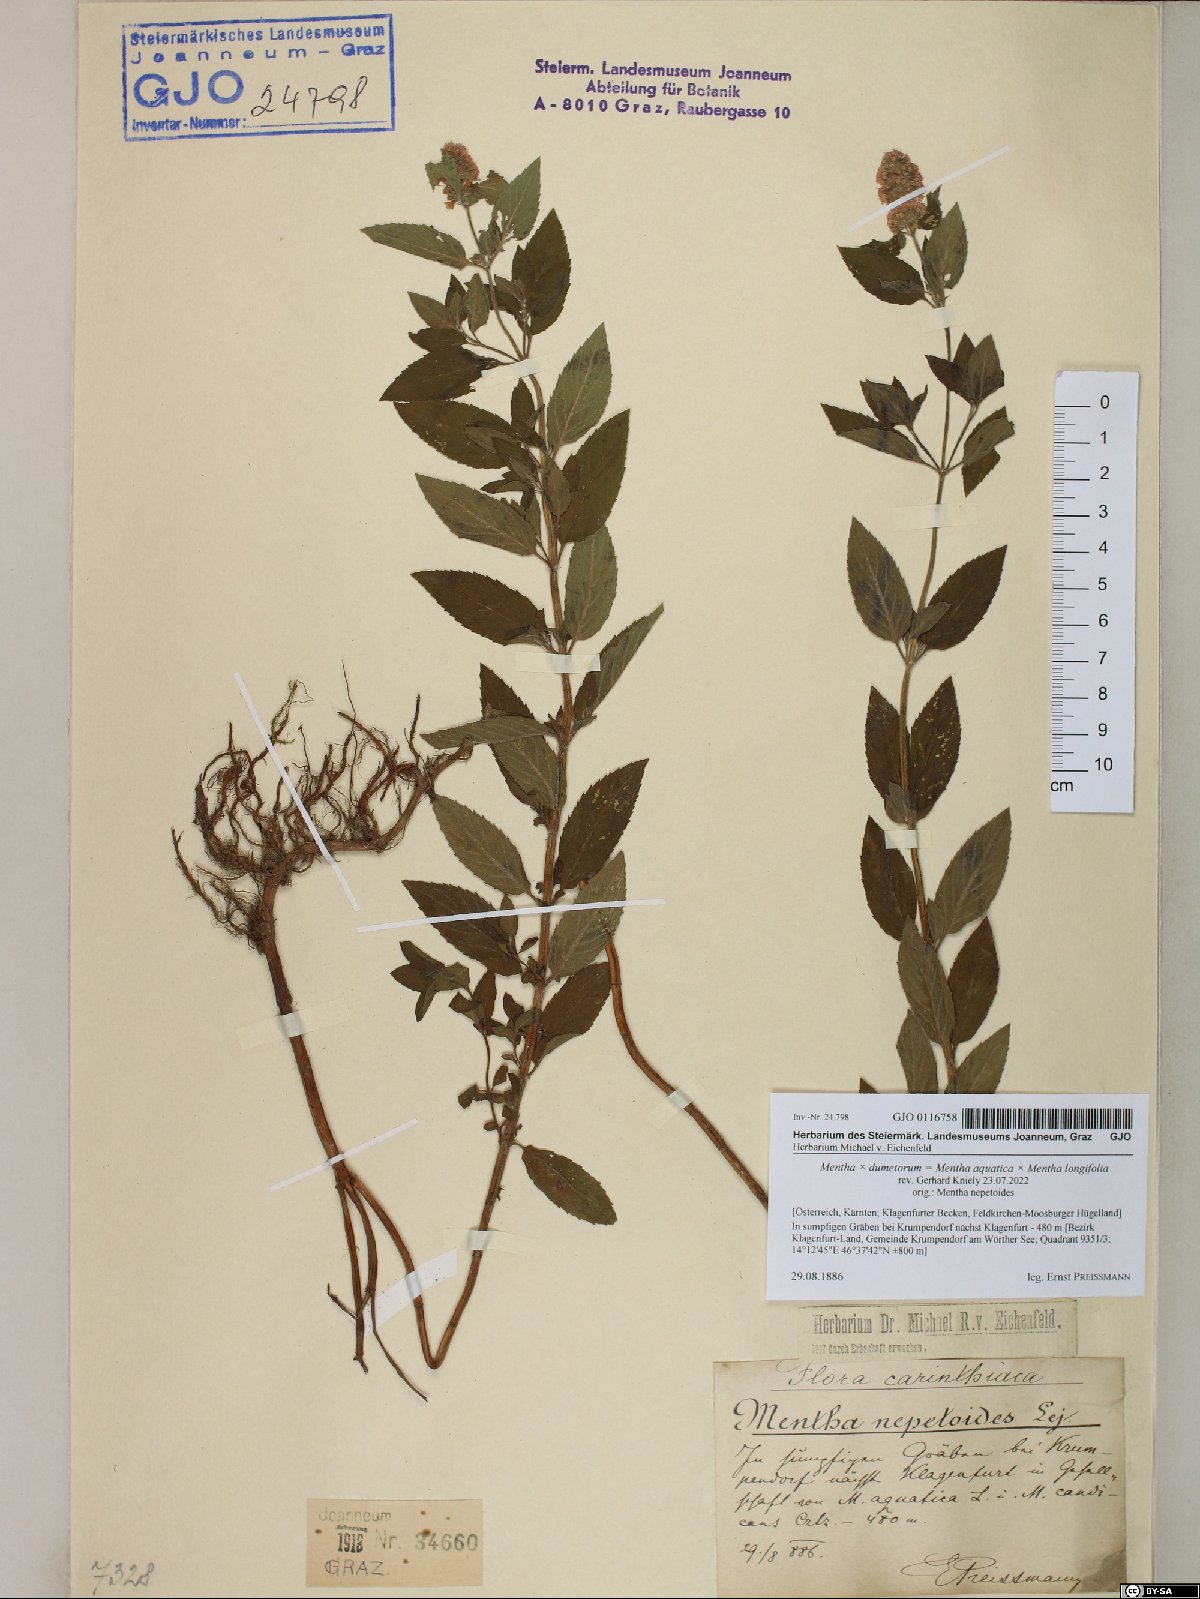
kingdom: Plantae
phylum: Tracheophyta
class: Magnoliopsida
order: Lamiales
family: Lamiaceae
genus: Mentha
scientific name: Mentha dumetorum
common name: Bush-loving mint
